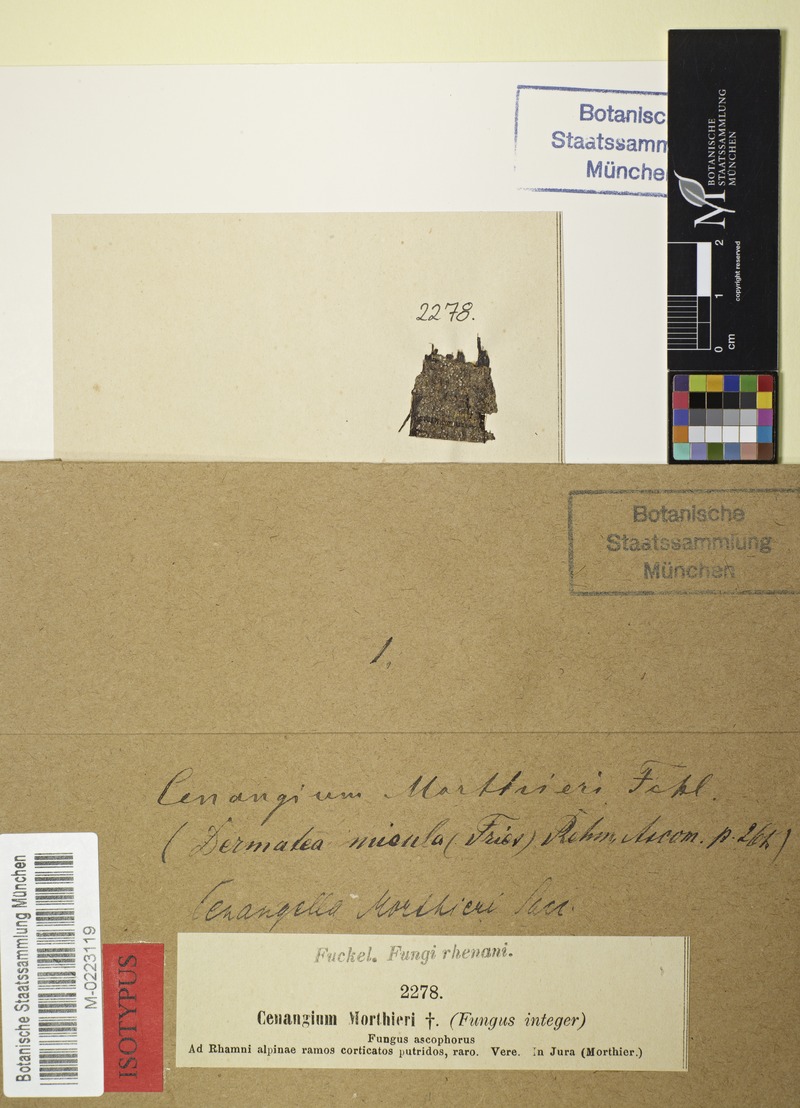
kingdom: Fungi
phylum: Ascomycota
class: Leotiomycetes
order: Helotiales
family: Ploettnerulaceae
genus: Pyrenopeziza
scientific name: Pyrenopeziza morthieri
